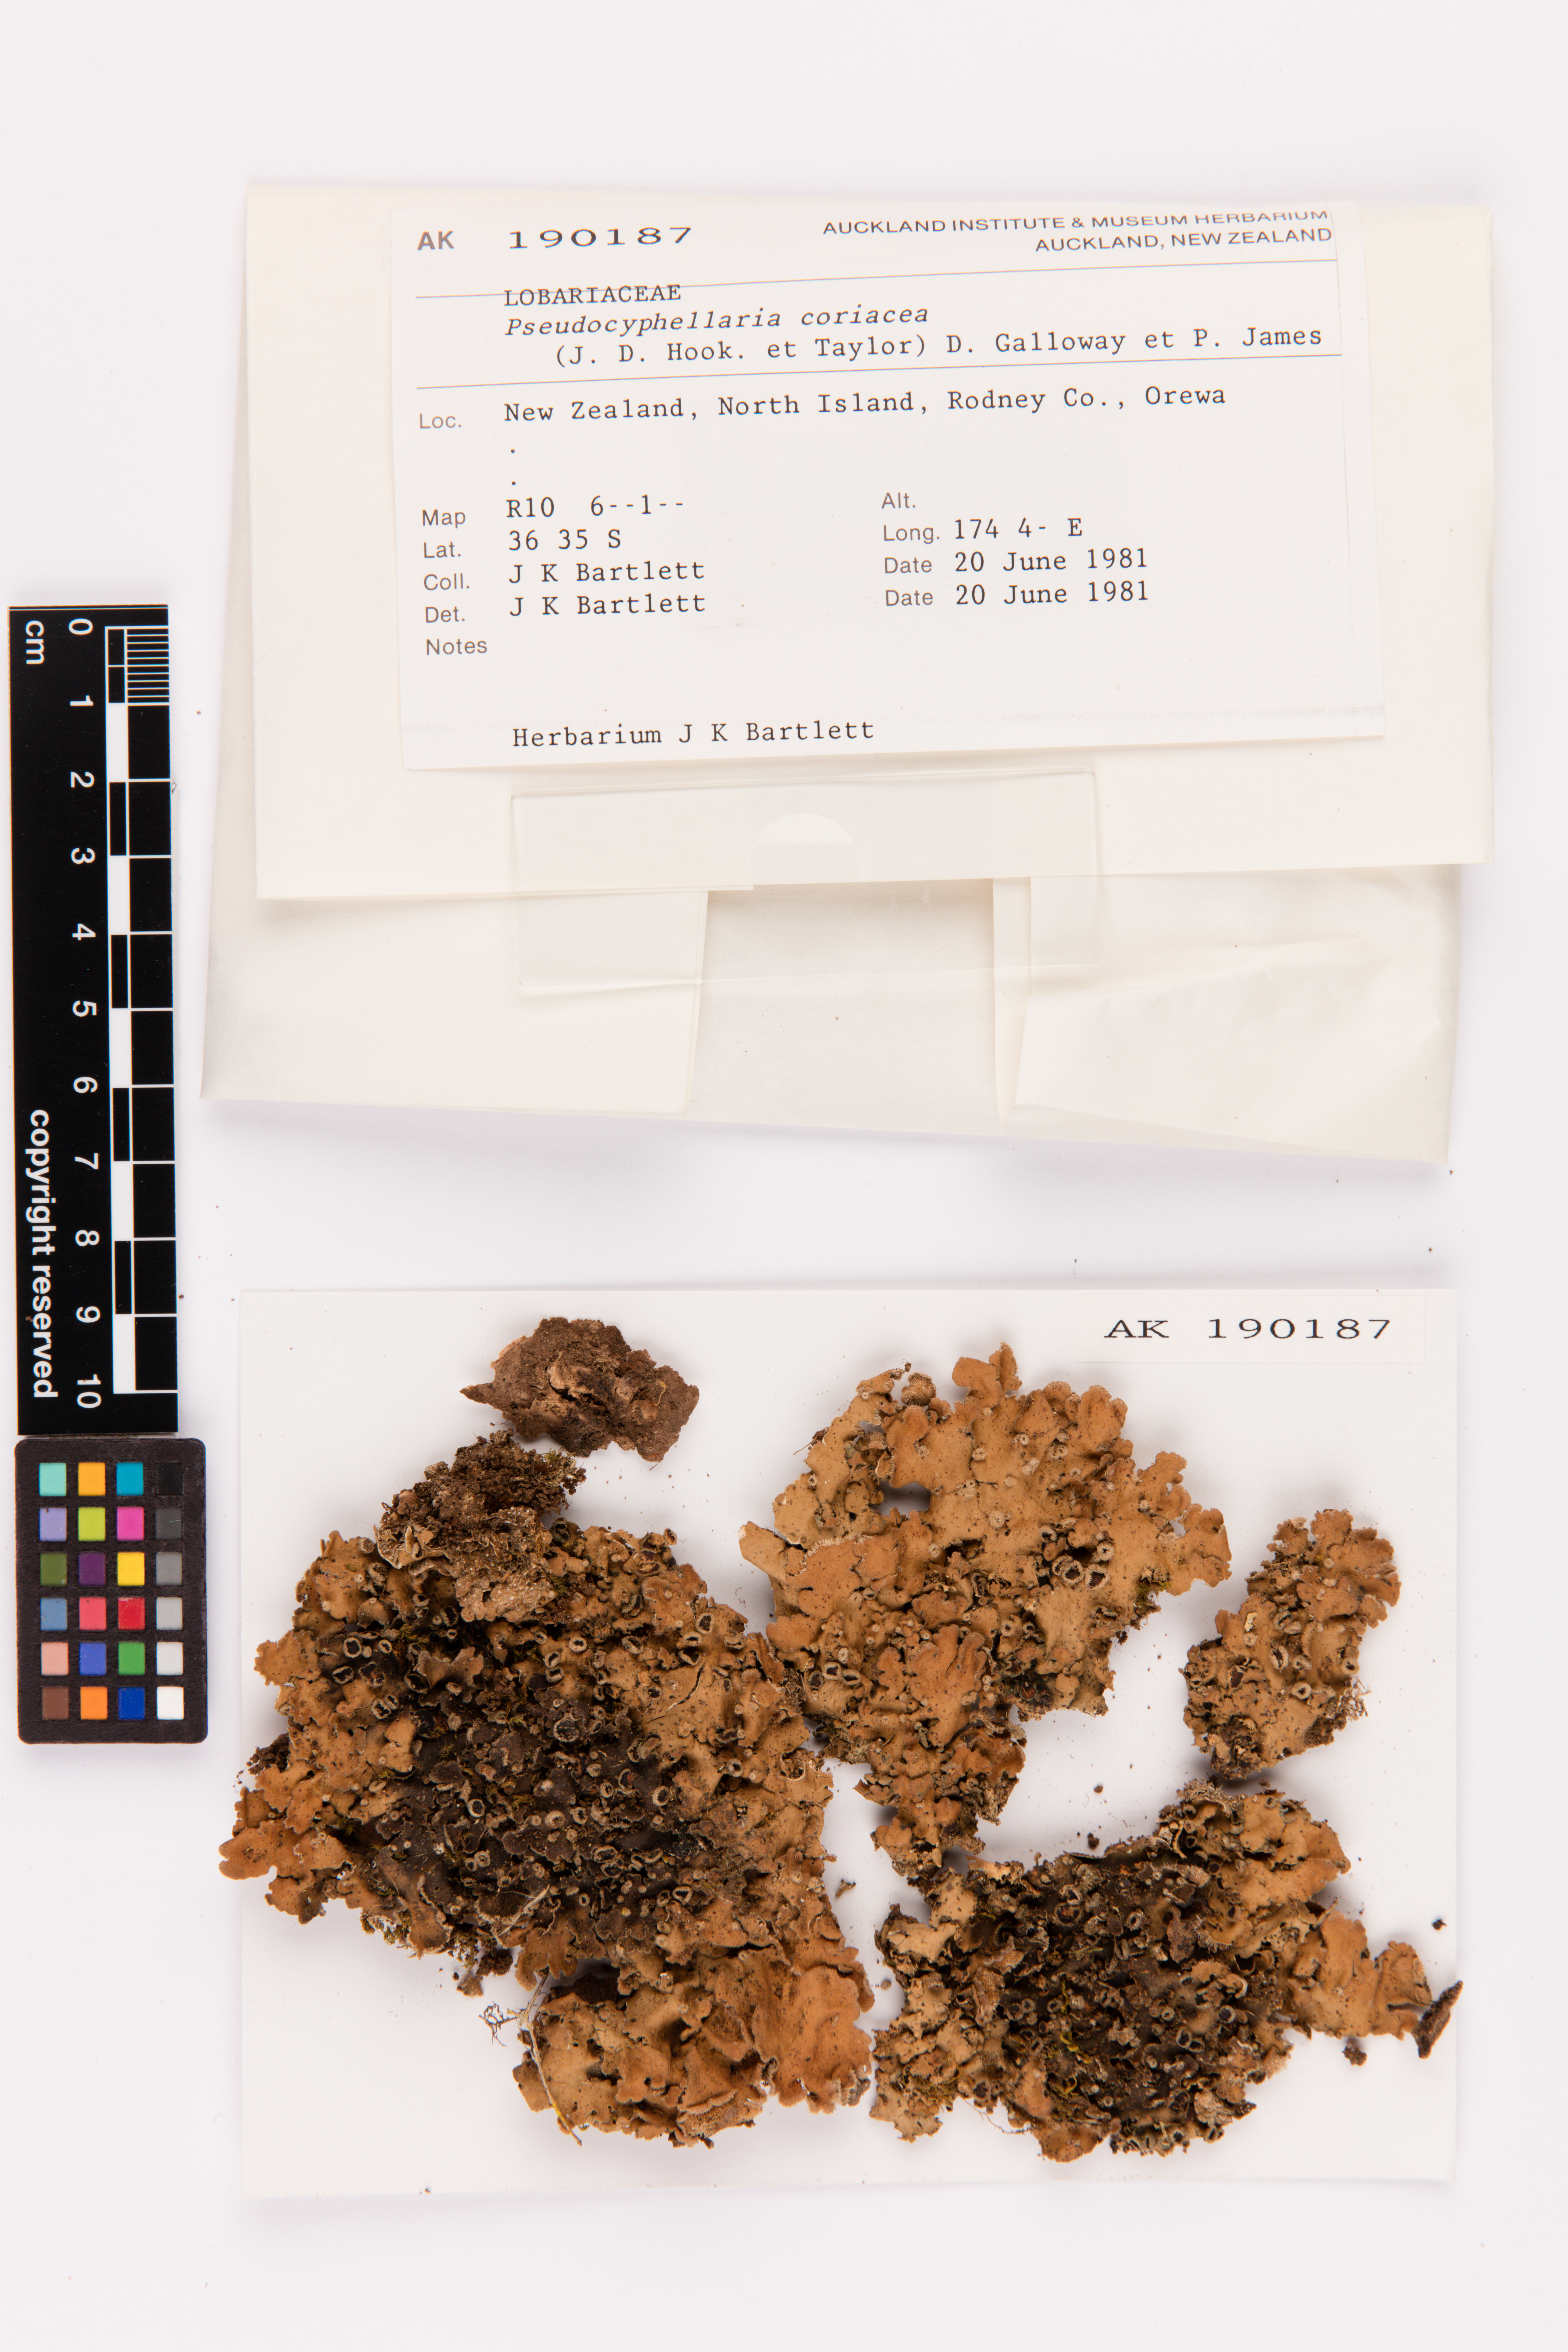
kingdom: Fungi
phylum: Ascomycota
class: Lecanoromycetes
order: Peltigerales
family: Lobariaceae
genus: Pseudocyphellaria
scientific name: Pseudocyphellaria coriacea
